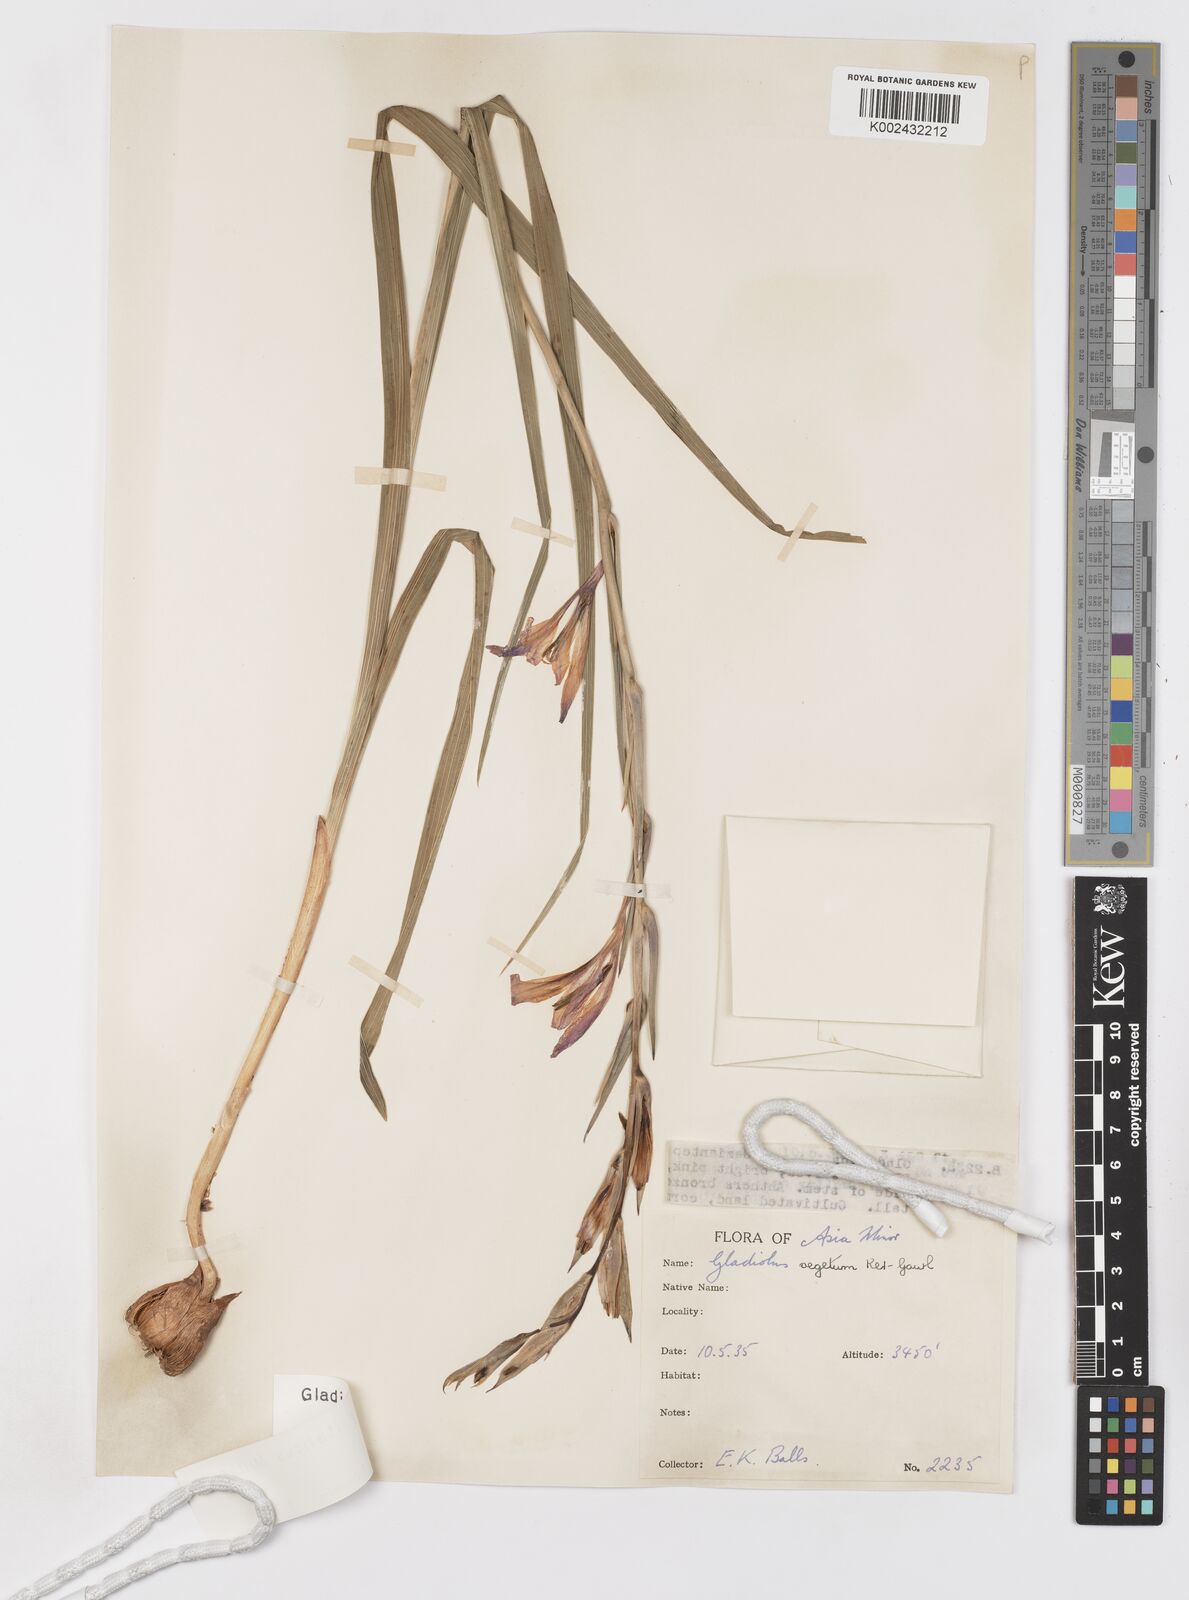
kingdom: Plantae
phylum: Tracheophyta
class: Liliopsida
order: Asparagales
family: Iridaceae
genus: Gladiolus
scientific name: Gladiolus italicus
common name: Field gladiolus
